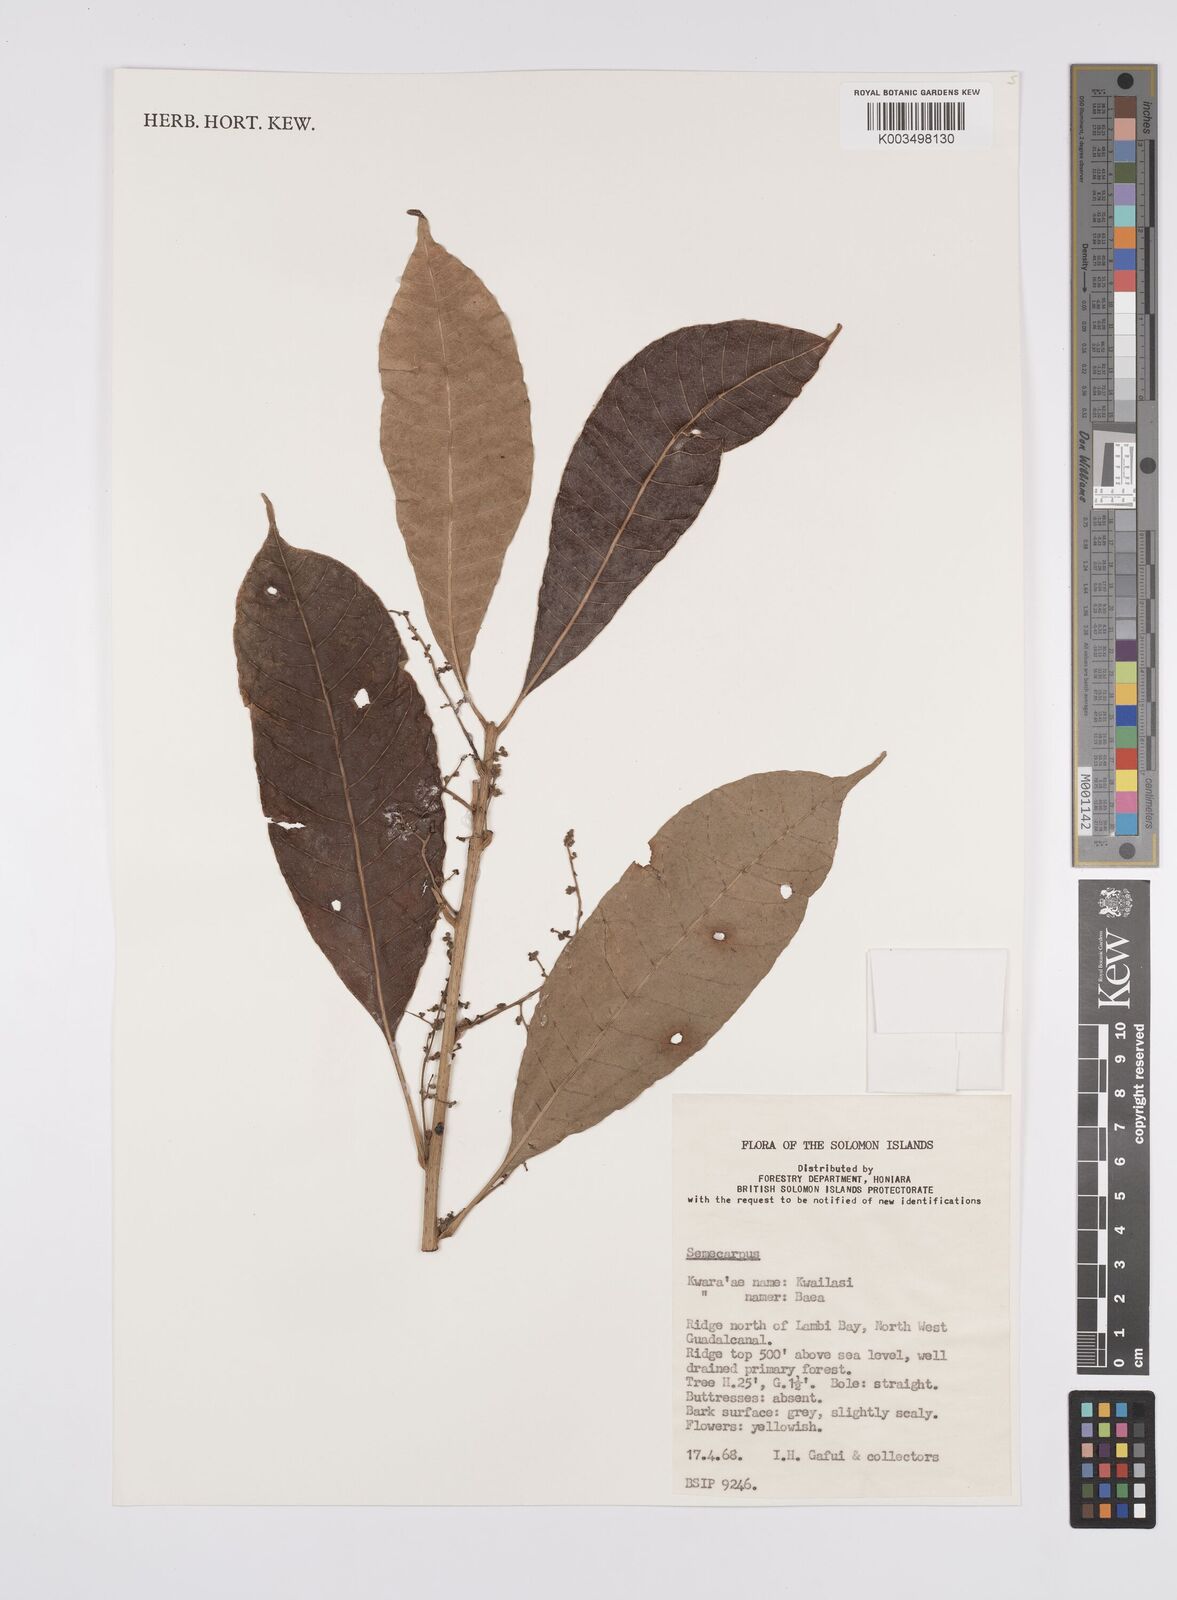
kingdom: Plantae
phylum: Tracheophyta
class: Magnoliopsida
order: Sapindales
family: Anacardiaceae
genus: Semecarpus
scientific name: Semecarpus
